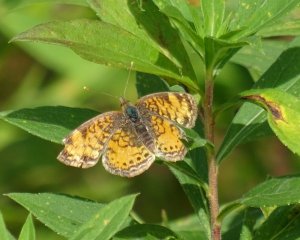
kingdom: Animalia
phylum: Arthropoda
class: Insecta
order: Lepidoptera
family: Nymphalidae
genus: Phyciodes
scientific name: Phyciodes tharos
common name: Northern Crescent
